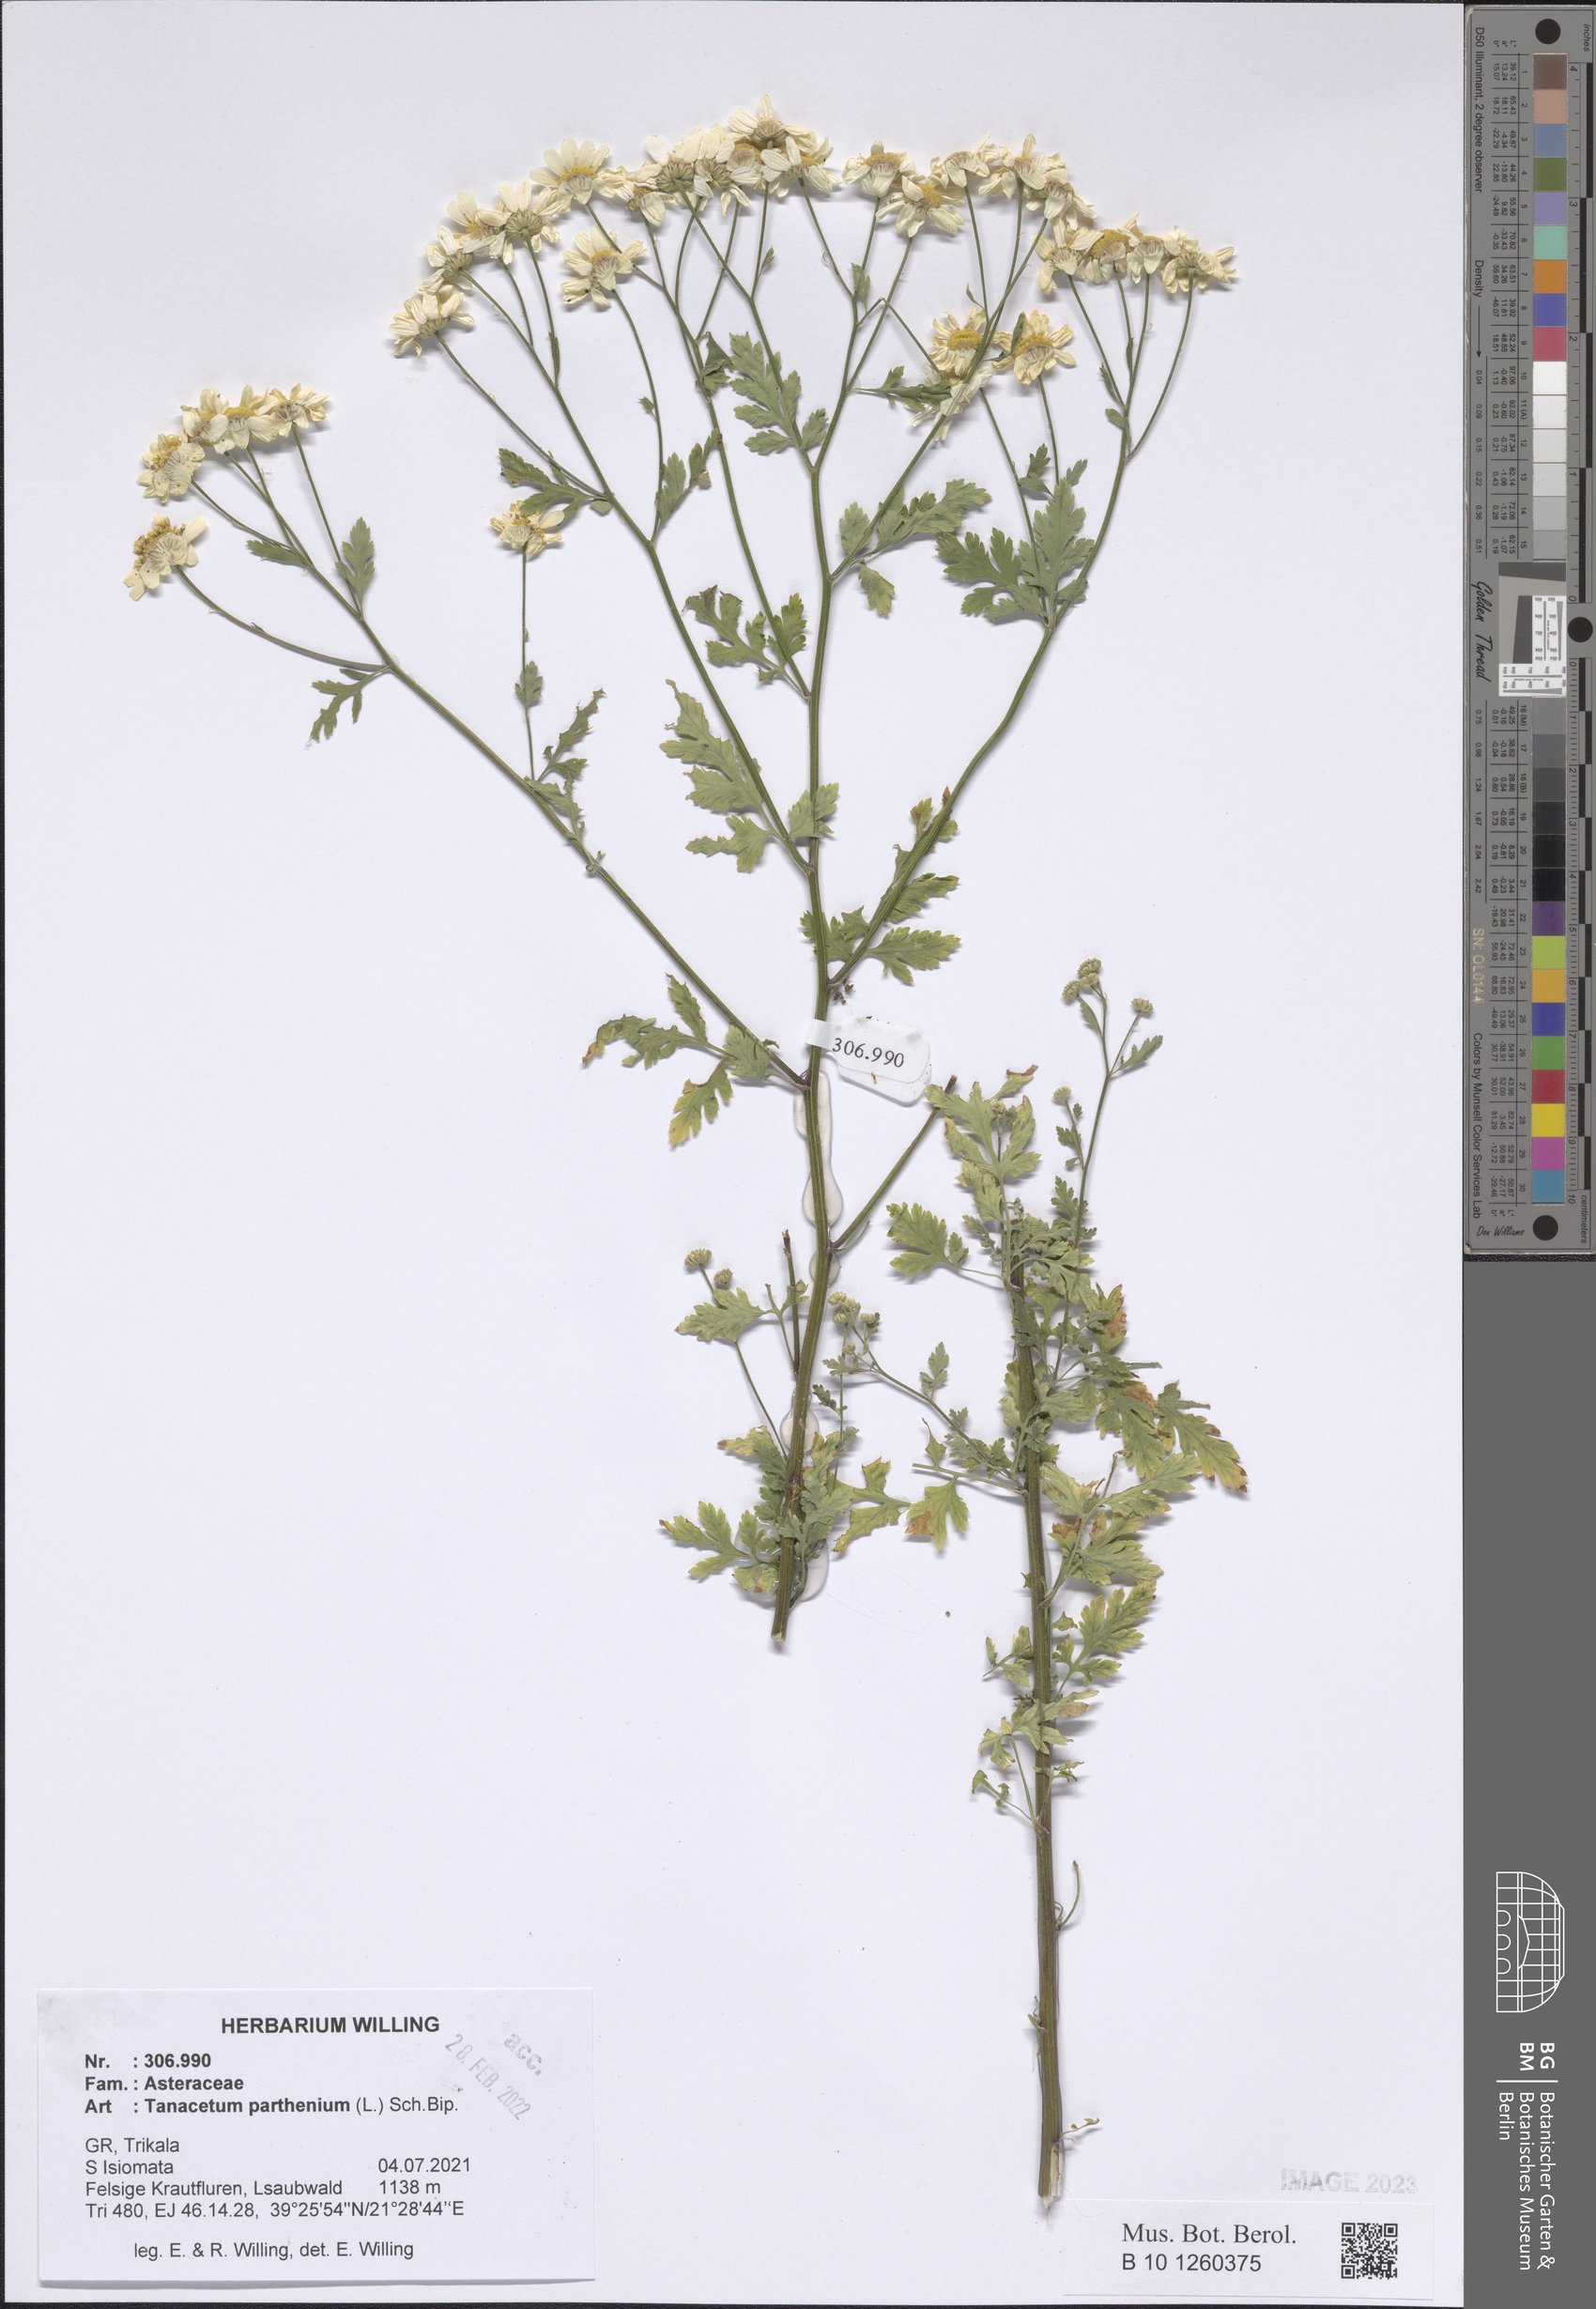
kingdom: Plantae
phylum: Tracheophyta
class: Magnoliopsida
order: Asterales
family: Asteraceae
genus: Tanacetum
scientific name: Tanacetum parthenium
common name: Feverfew
